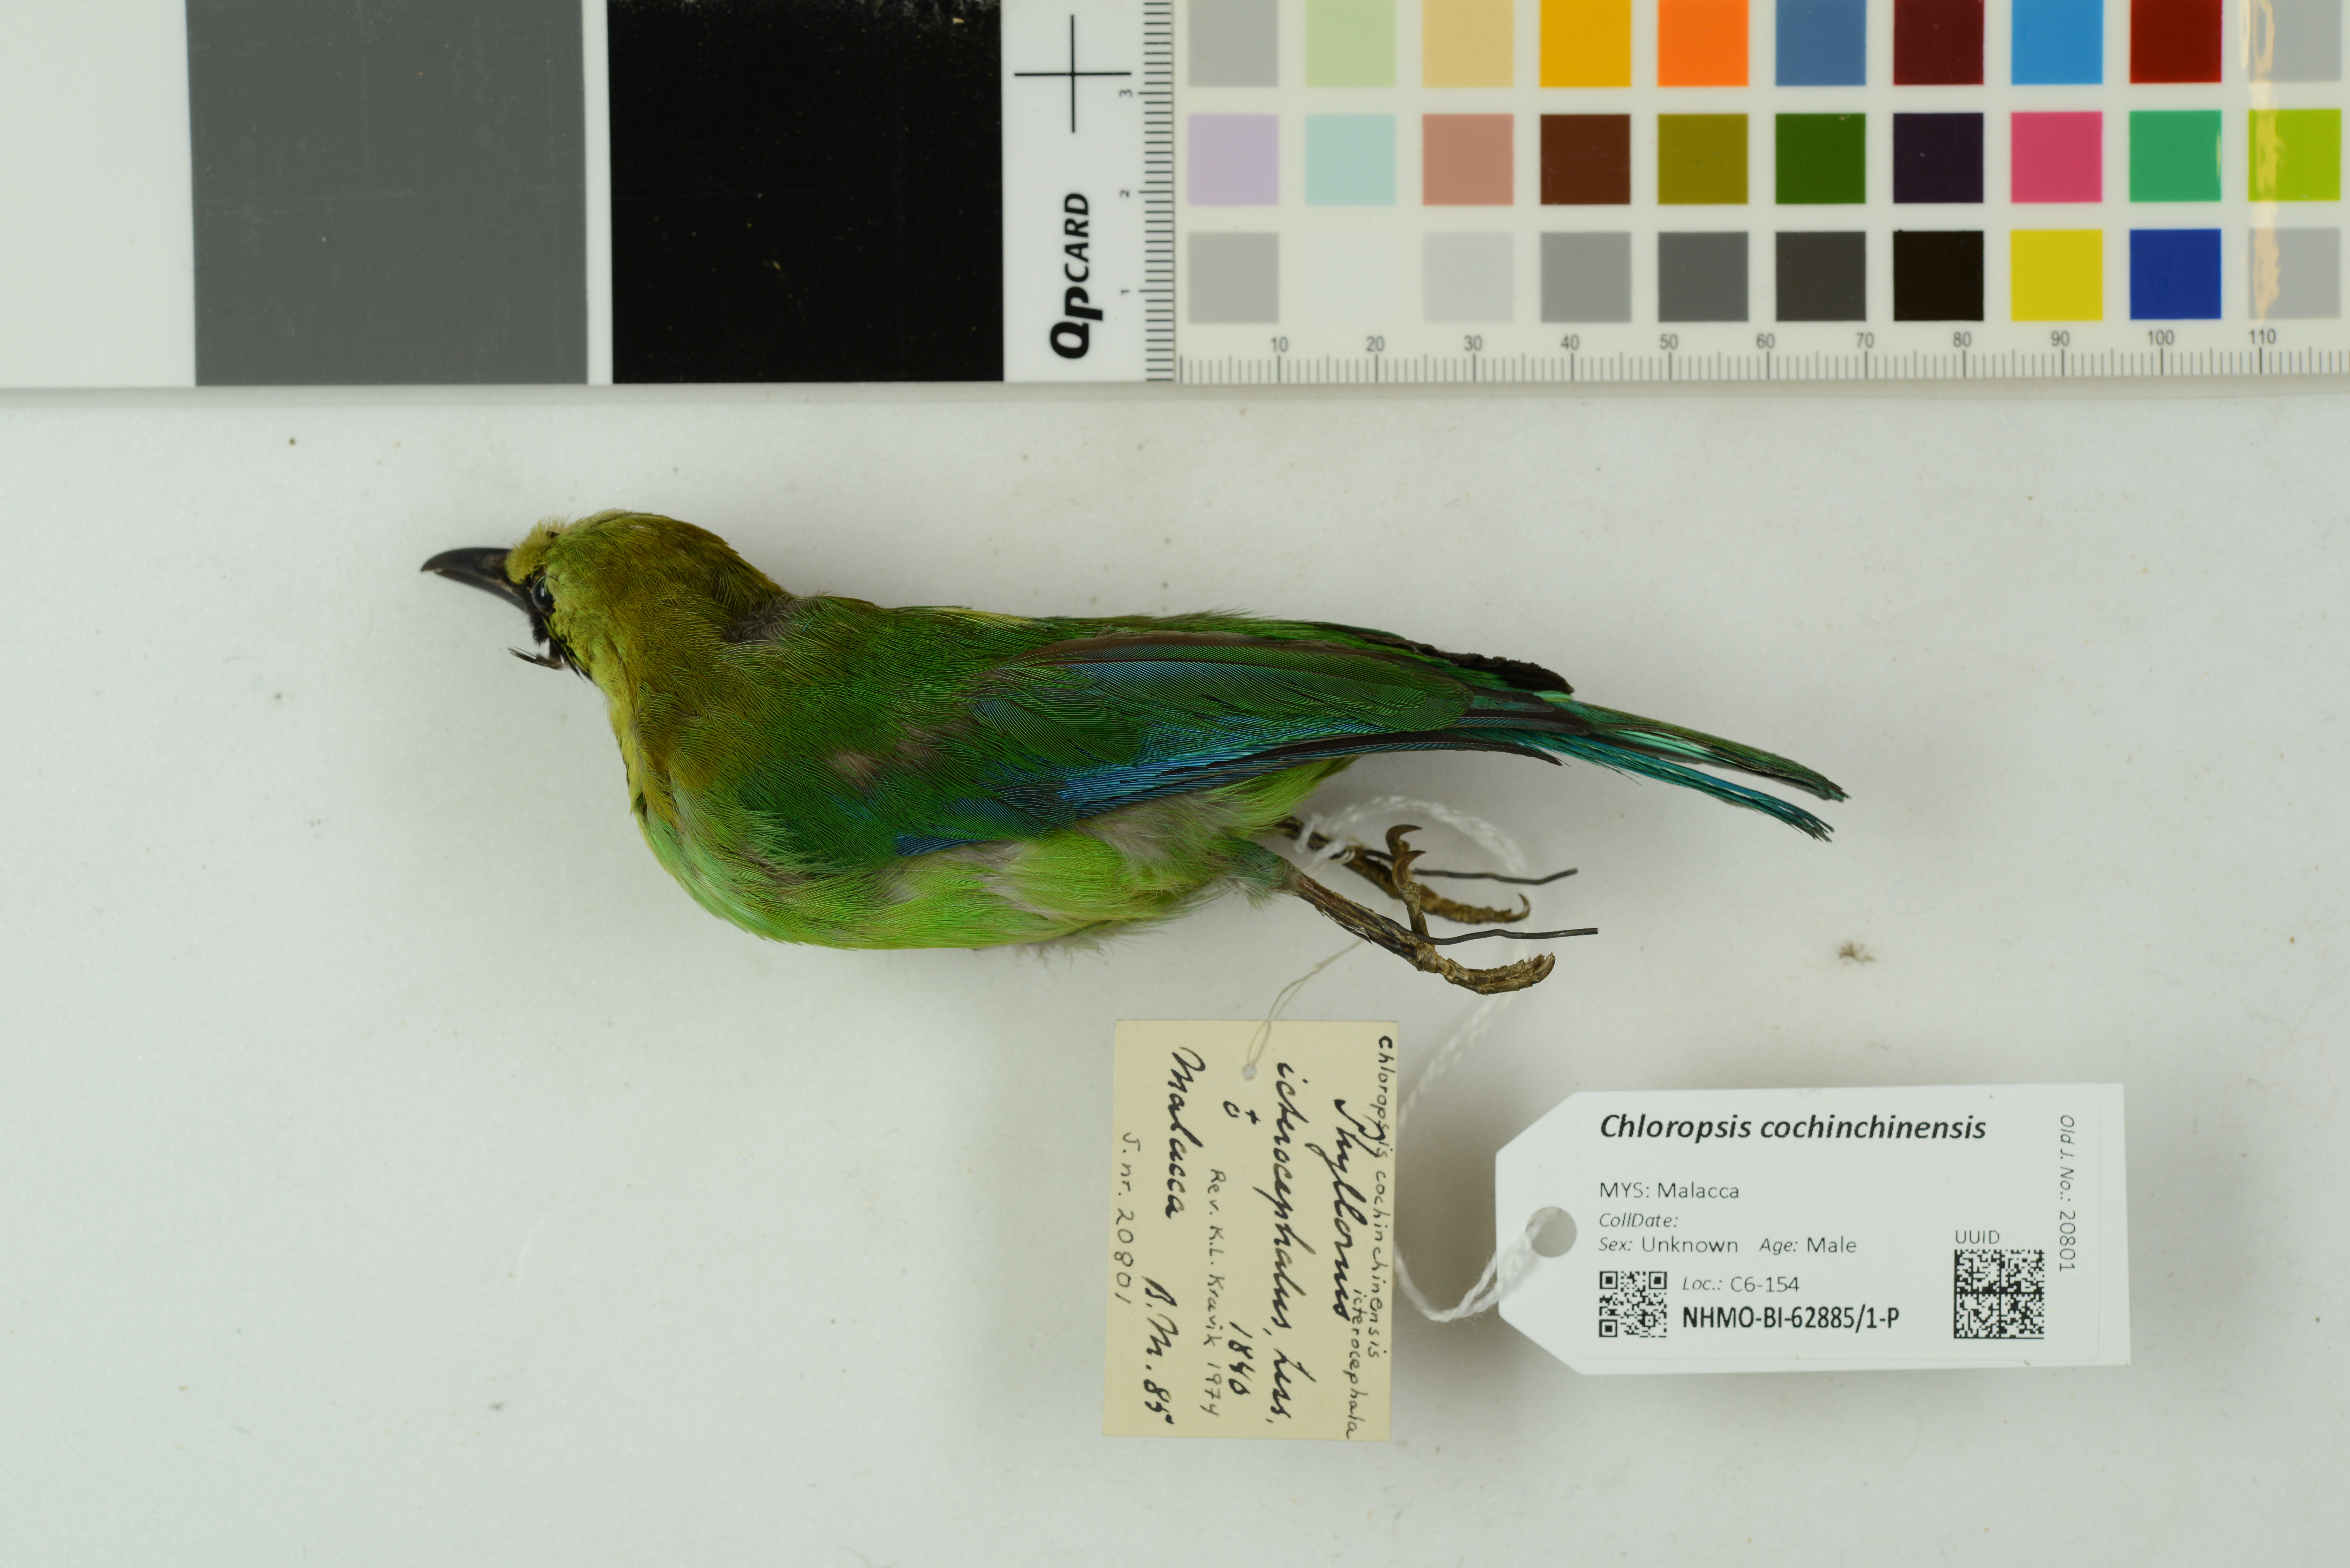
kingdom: Animalia
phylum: Chordata
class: Aves
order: Passeriformes
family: Chloropseidae
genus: Chloropsis
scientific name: Chloropsis cochinchinensis
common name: Blue-winged leafbird
